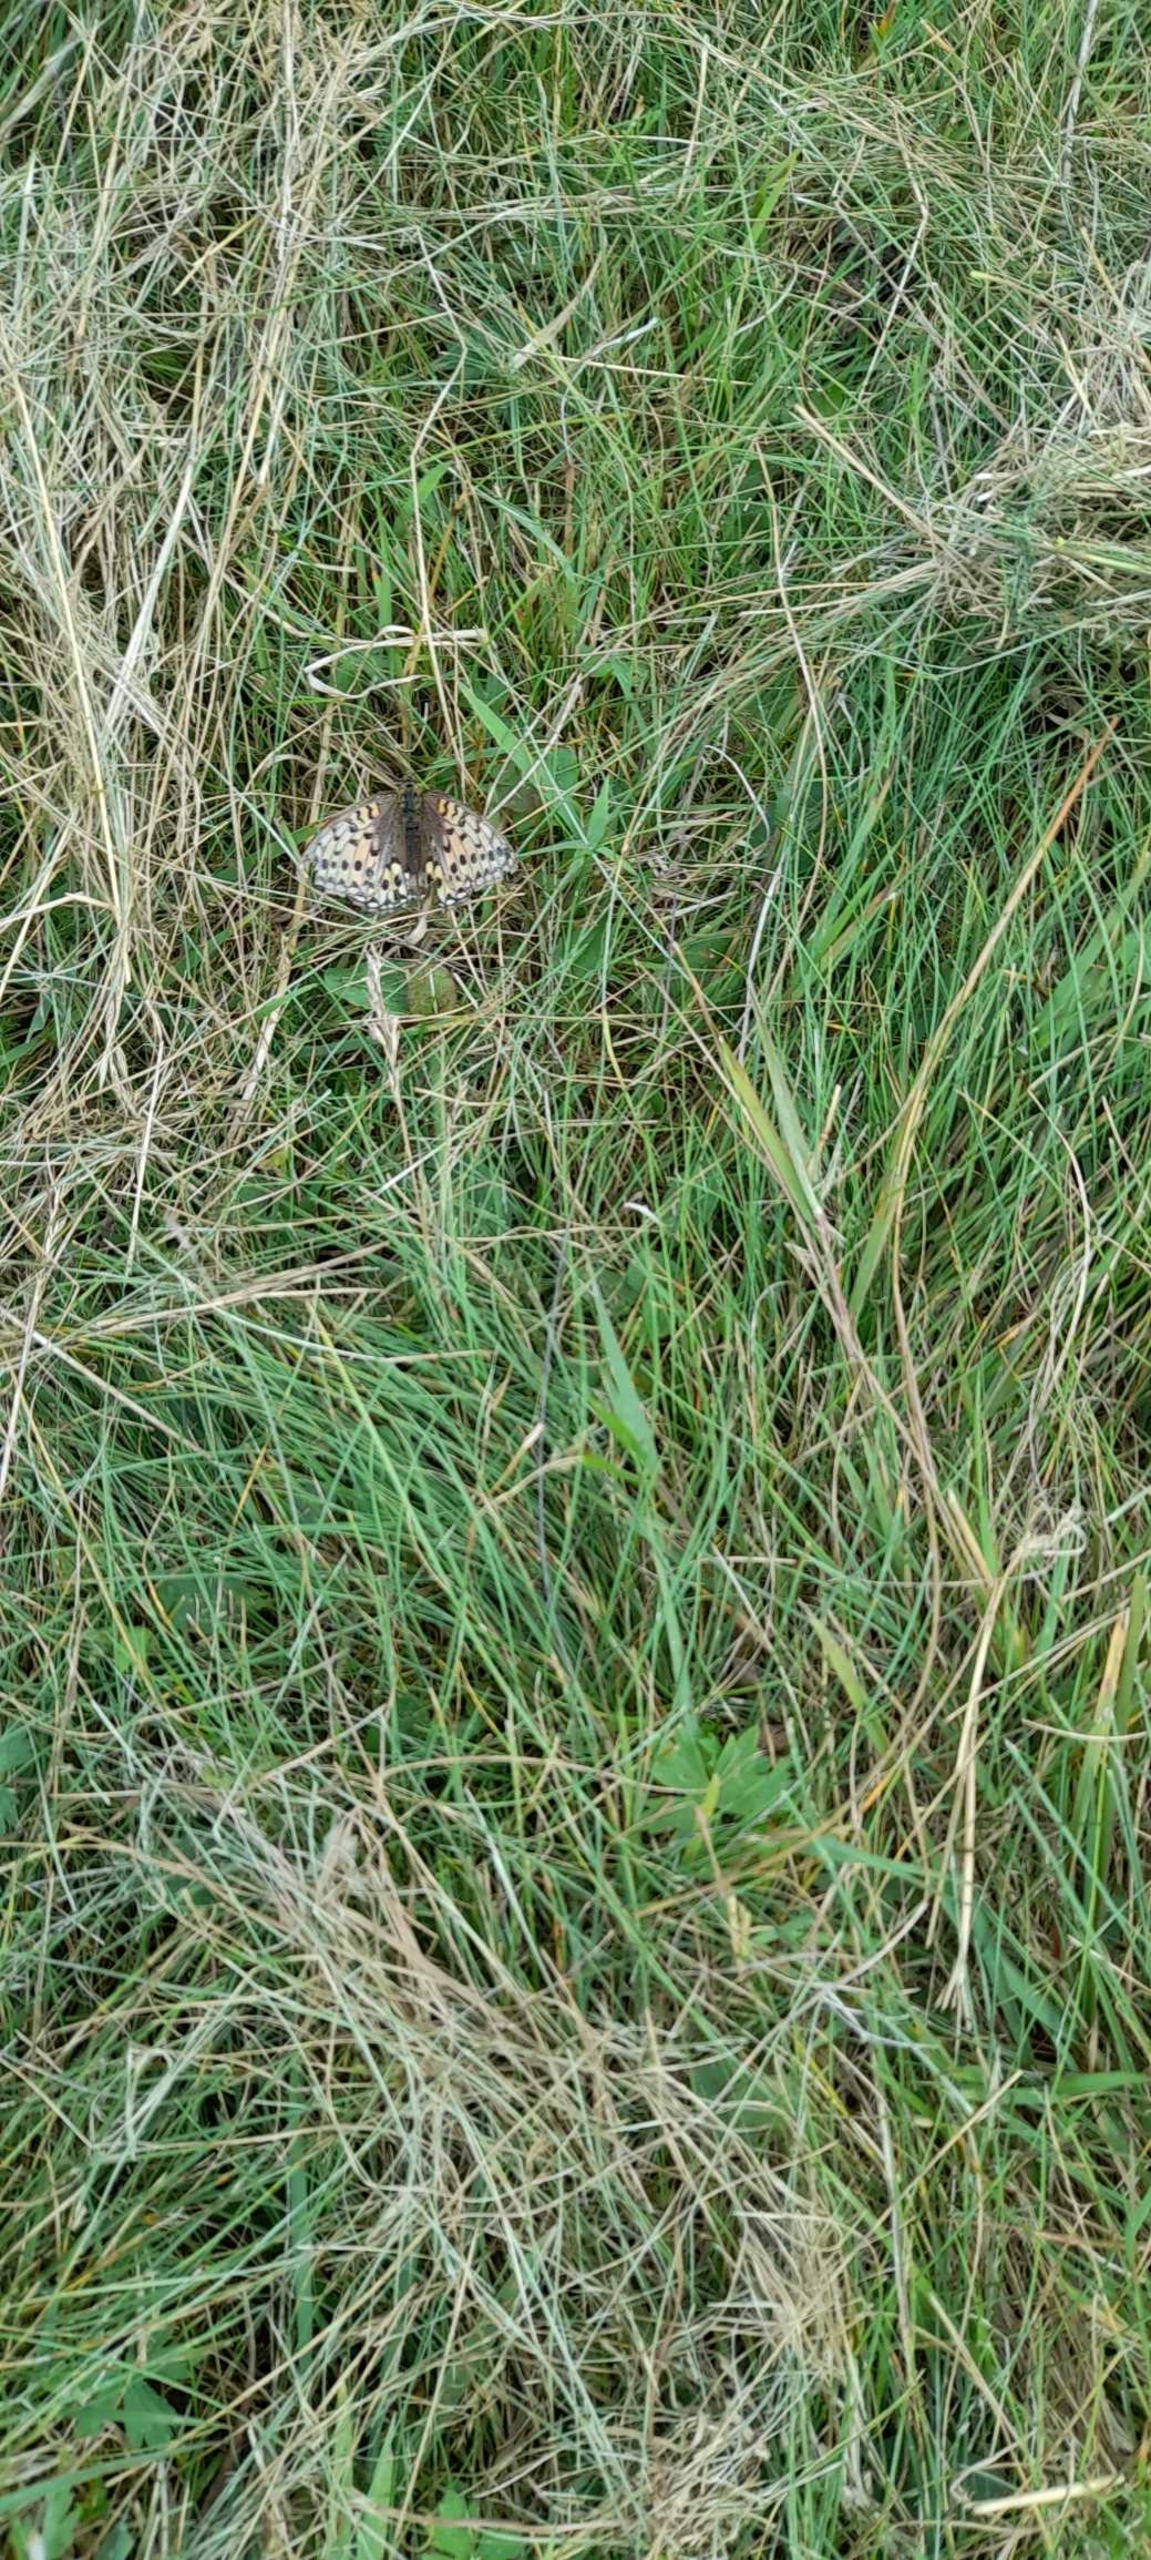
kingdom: Animalia
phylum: Arthropoda
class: Insecta
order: Lepidoptera
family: Nymphalidae
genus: Speyeria
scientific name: Speyeria aglaja
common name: Markperlemorsommerfugl
